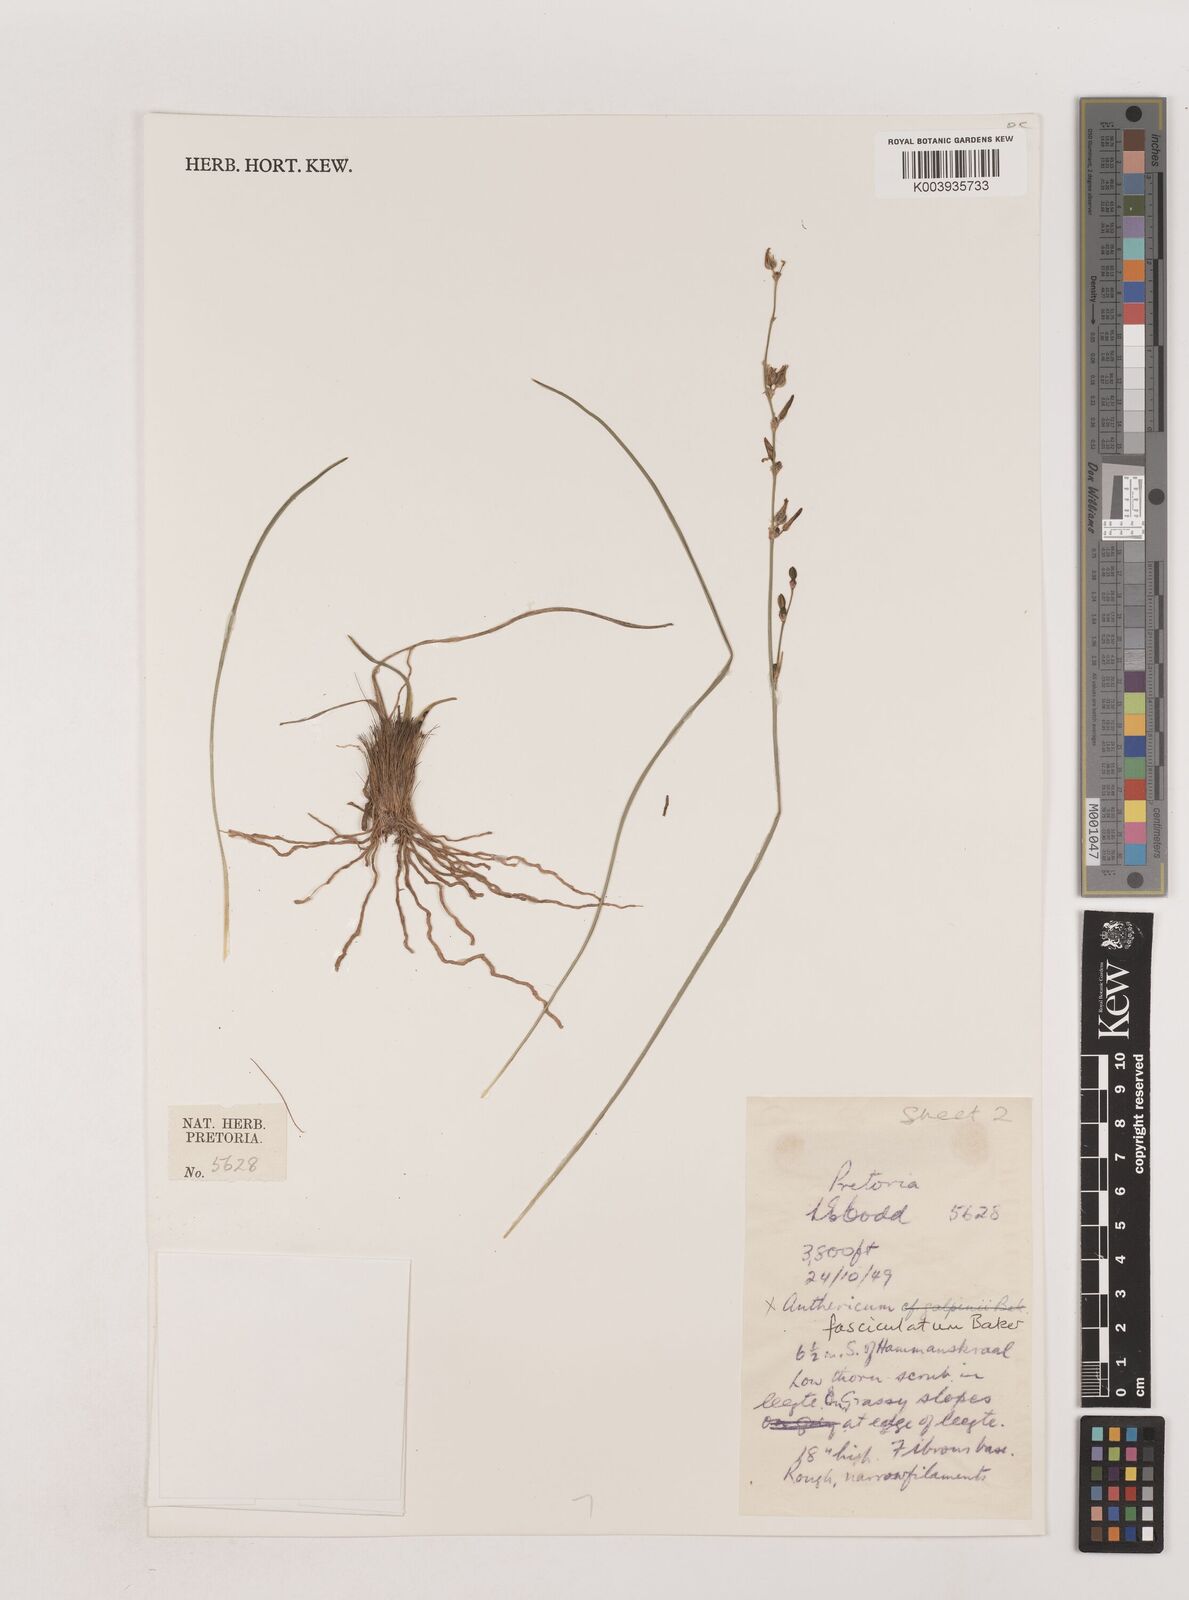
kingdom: Plantae
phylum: Tracheophyta
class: Liliopsida
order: Asparagales
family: Asparagaceae
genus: Chlorophytum
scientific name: Chlorophytum fasciculatum
